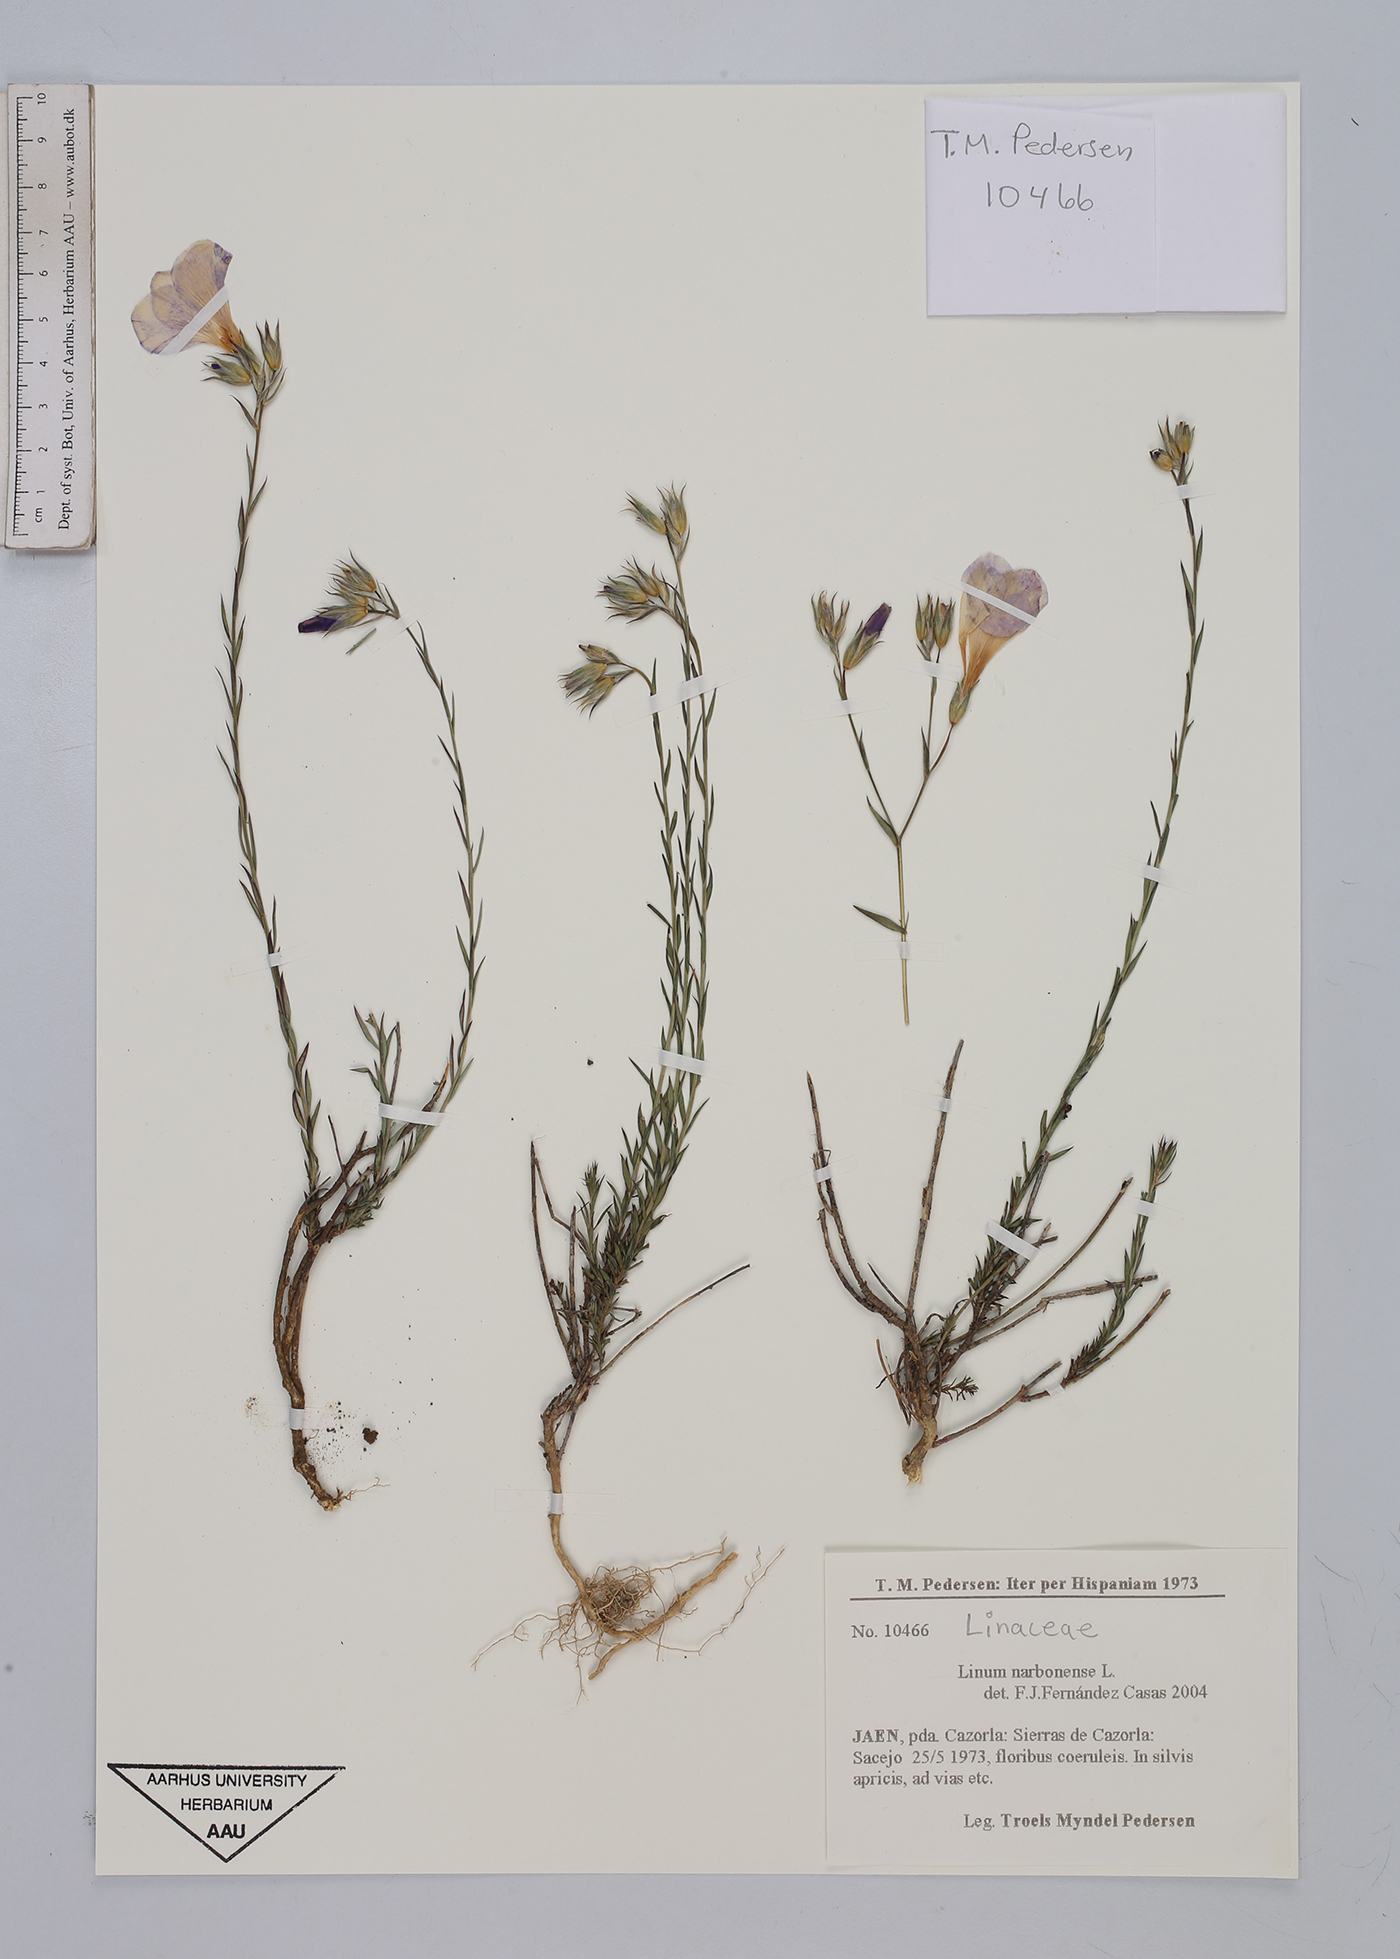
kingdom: Plantae
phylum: Tracheophyta
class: Magnoliopsida
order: Malpighiales
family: Linaceae
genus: Linum
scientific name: Linum narbonense
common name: Flax
